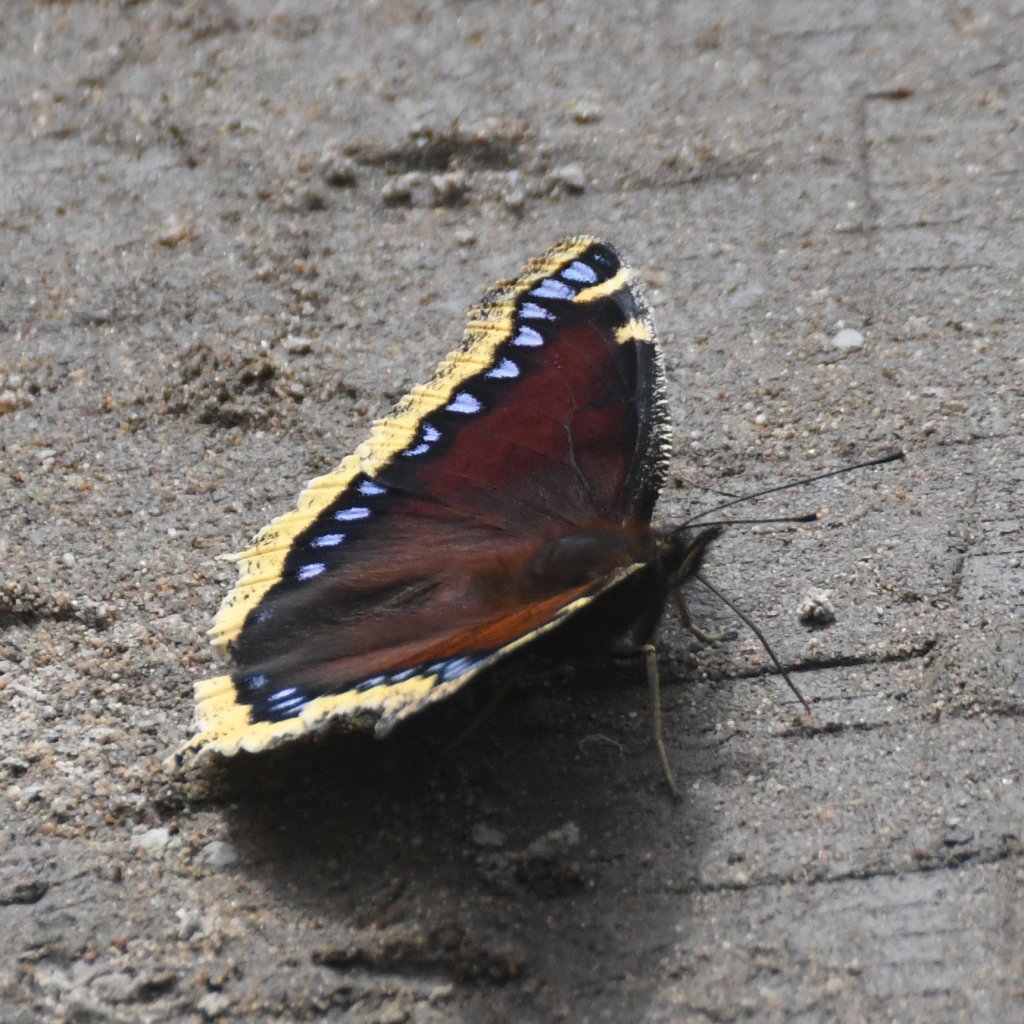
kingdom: Animalia
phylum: Arthropoda
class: Insecta
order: Lepidoptera
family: Nymphalidae
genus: Nymphalis
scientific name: Nymphalis antiopa
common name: Mourning Cloak
